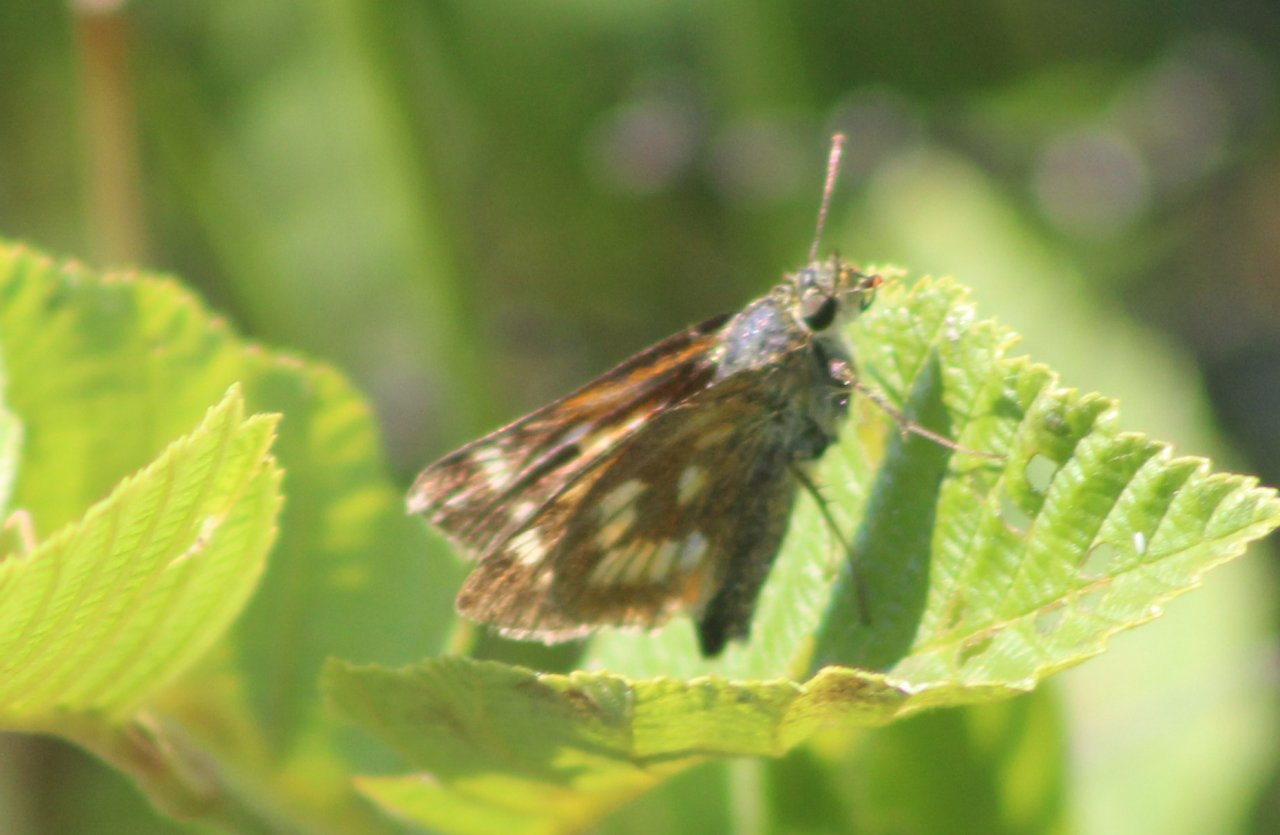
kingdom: Animalia
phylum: Arthropoda
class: Insecta
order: Lepidoptera
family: Hesperiidae
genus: Polites
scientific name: Polites
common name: Long Dash Skipper
